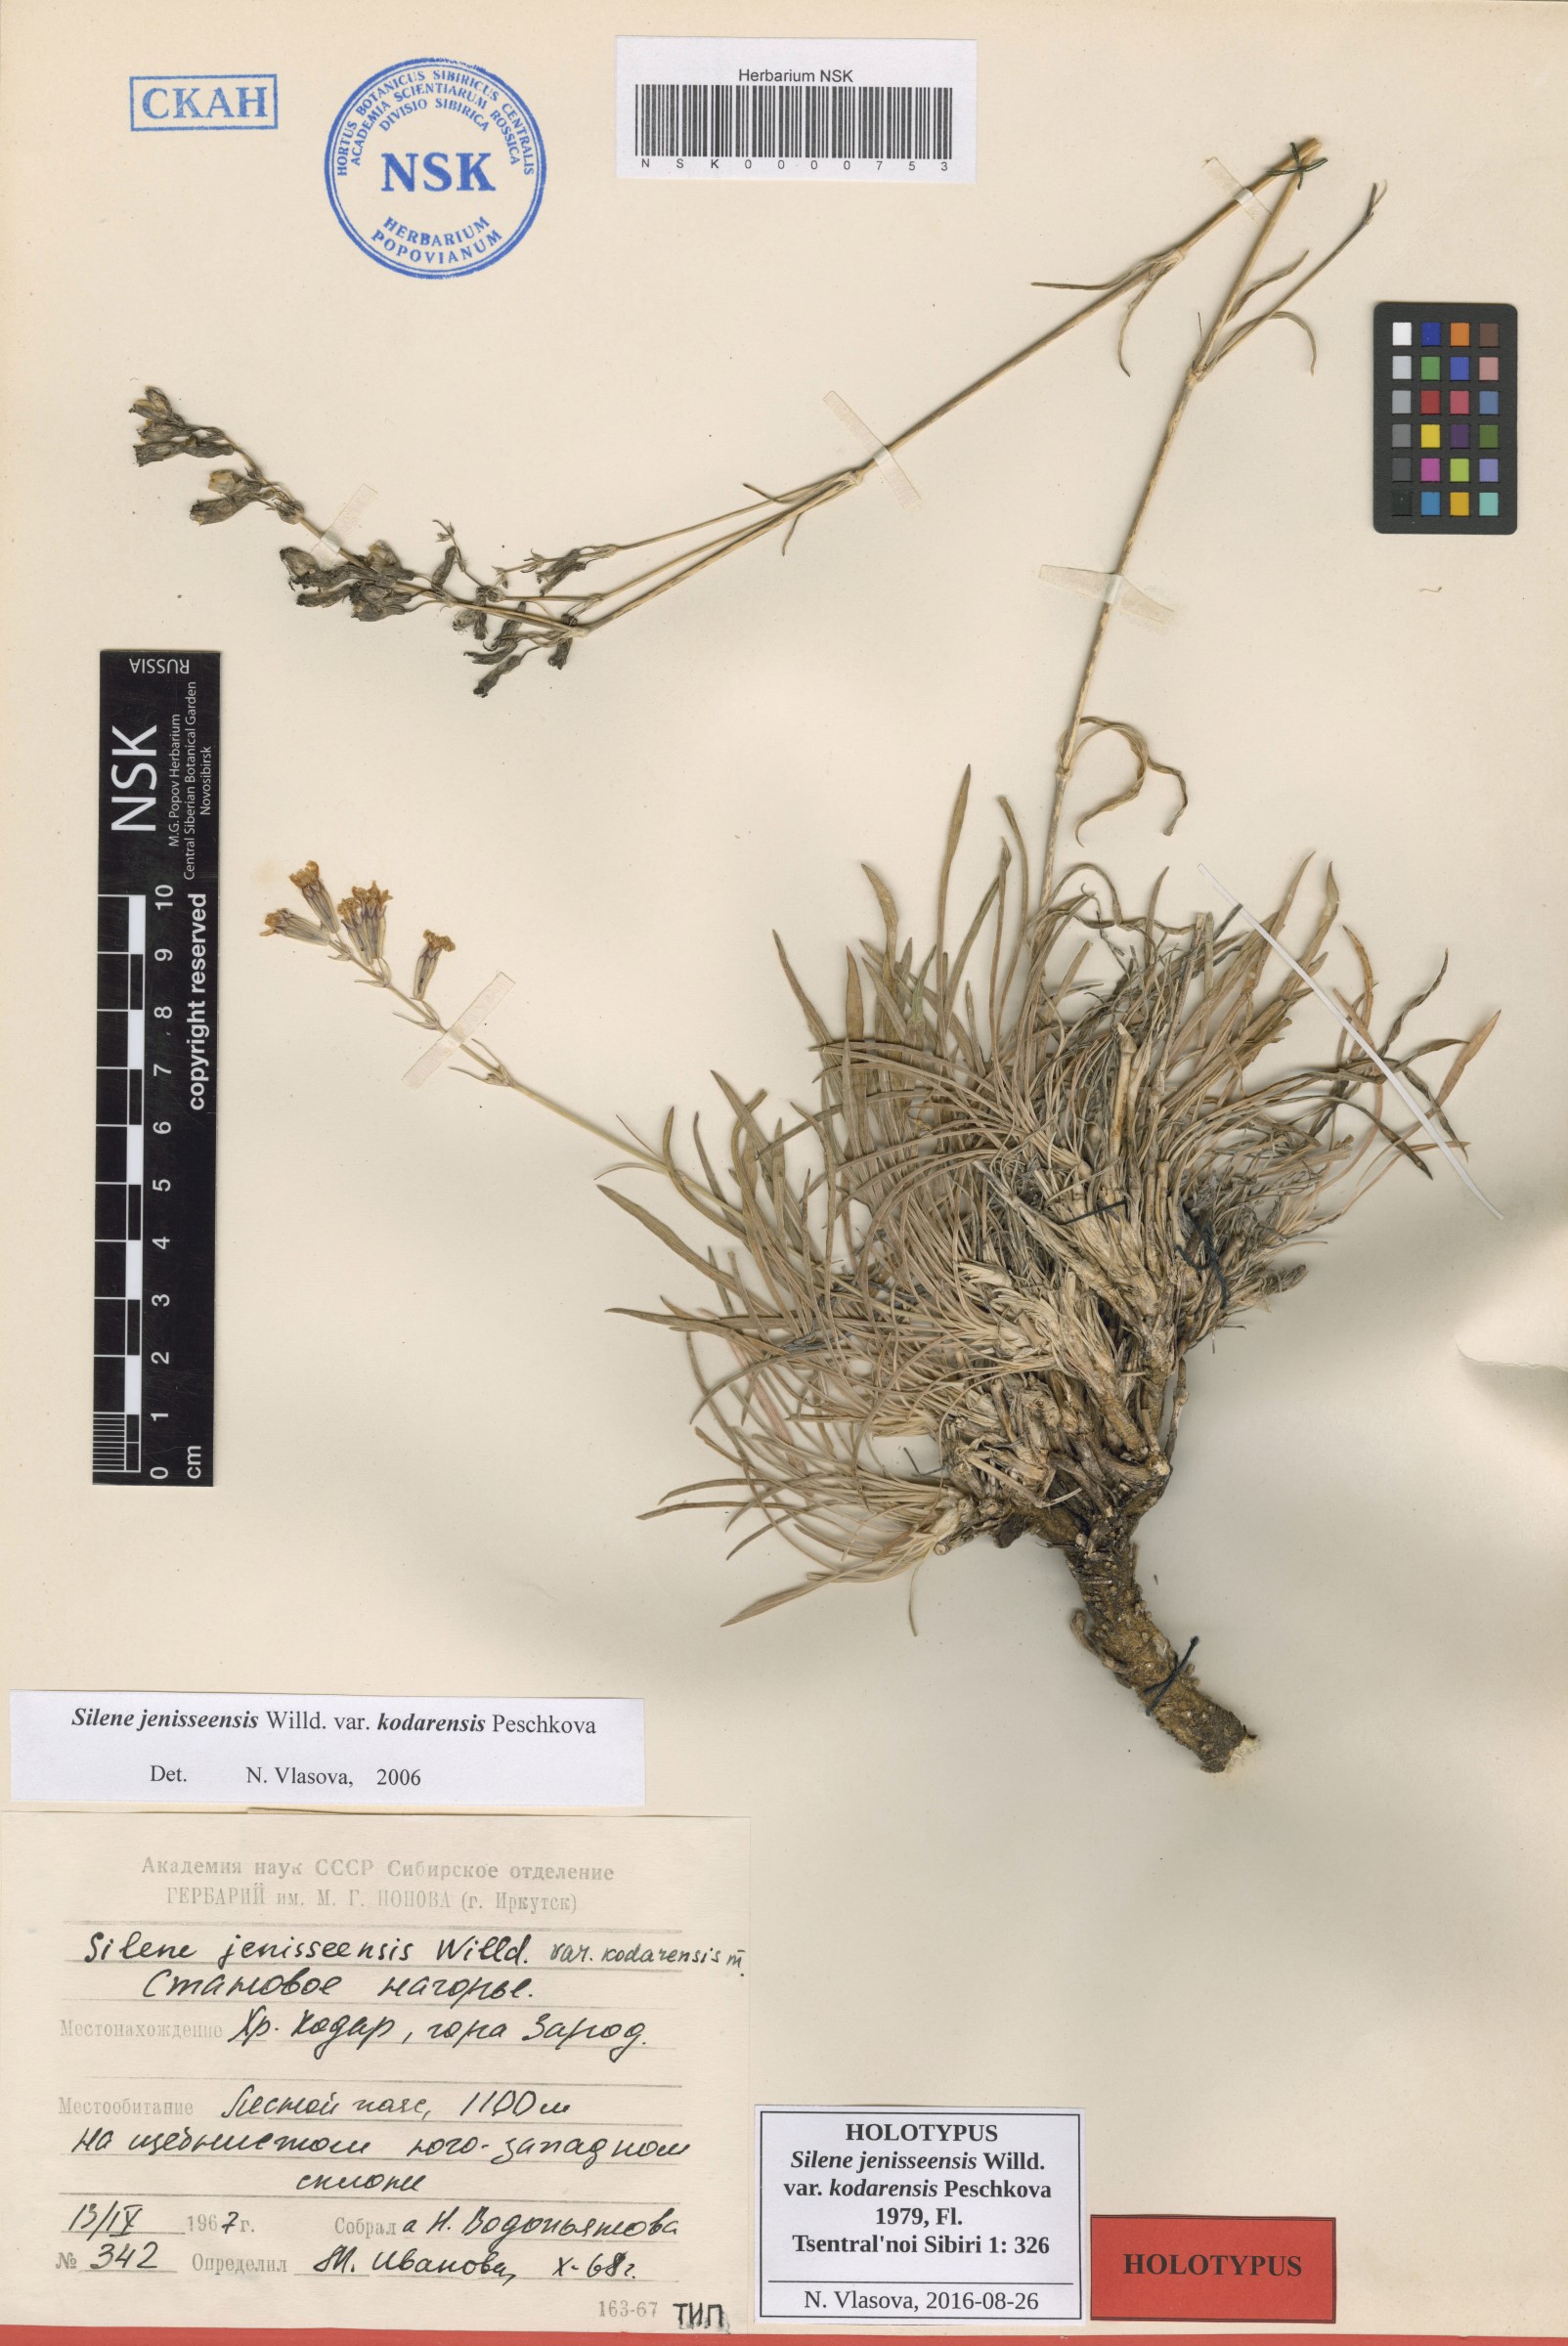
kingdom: Plantae
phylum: Tracheophyta
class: Magnoliopsida
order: Caryophyllales
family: Caryophyllaceae
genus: Silene
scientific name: Silene jeniseensis
